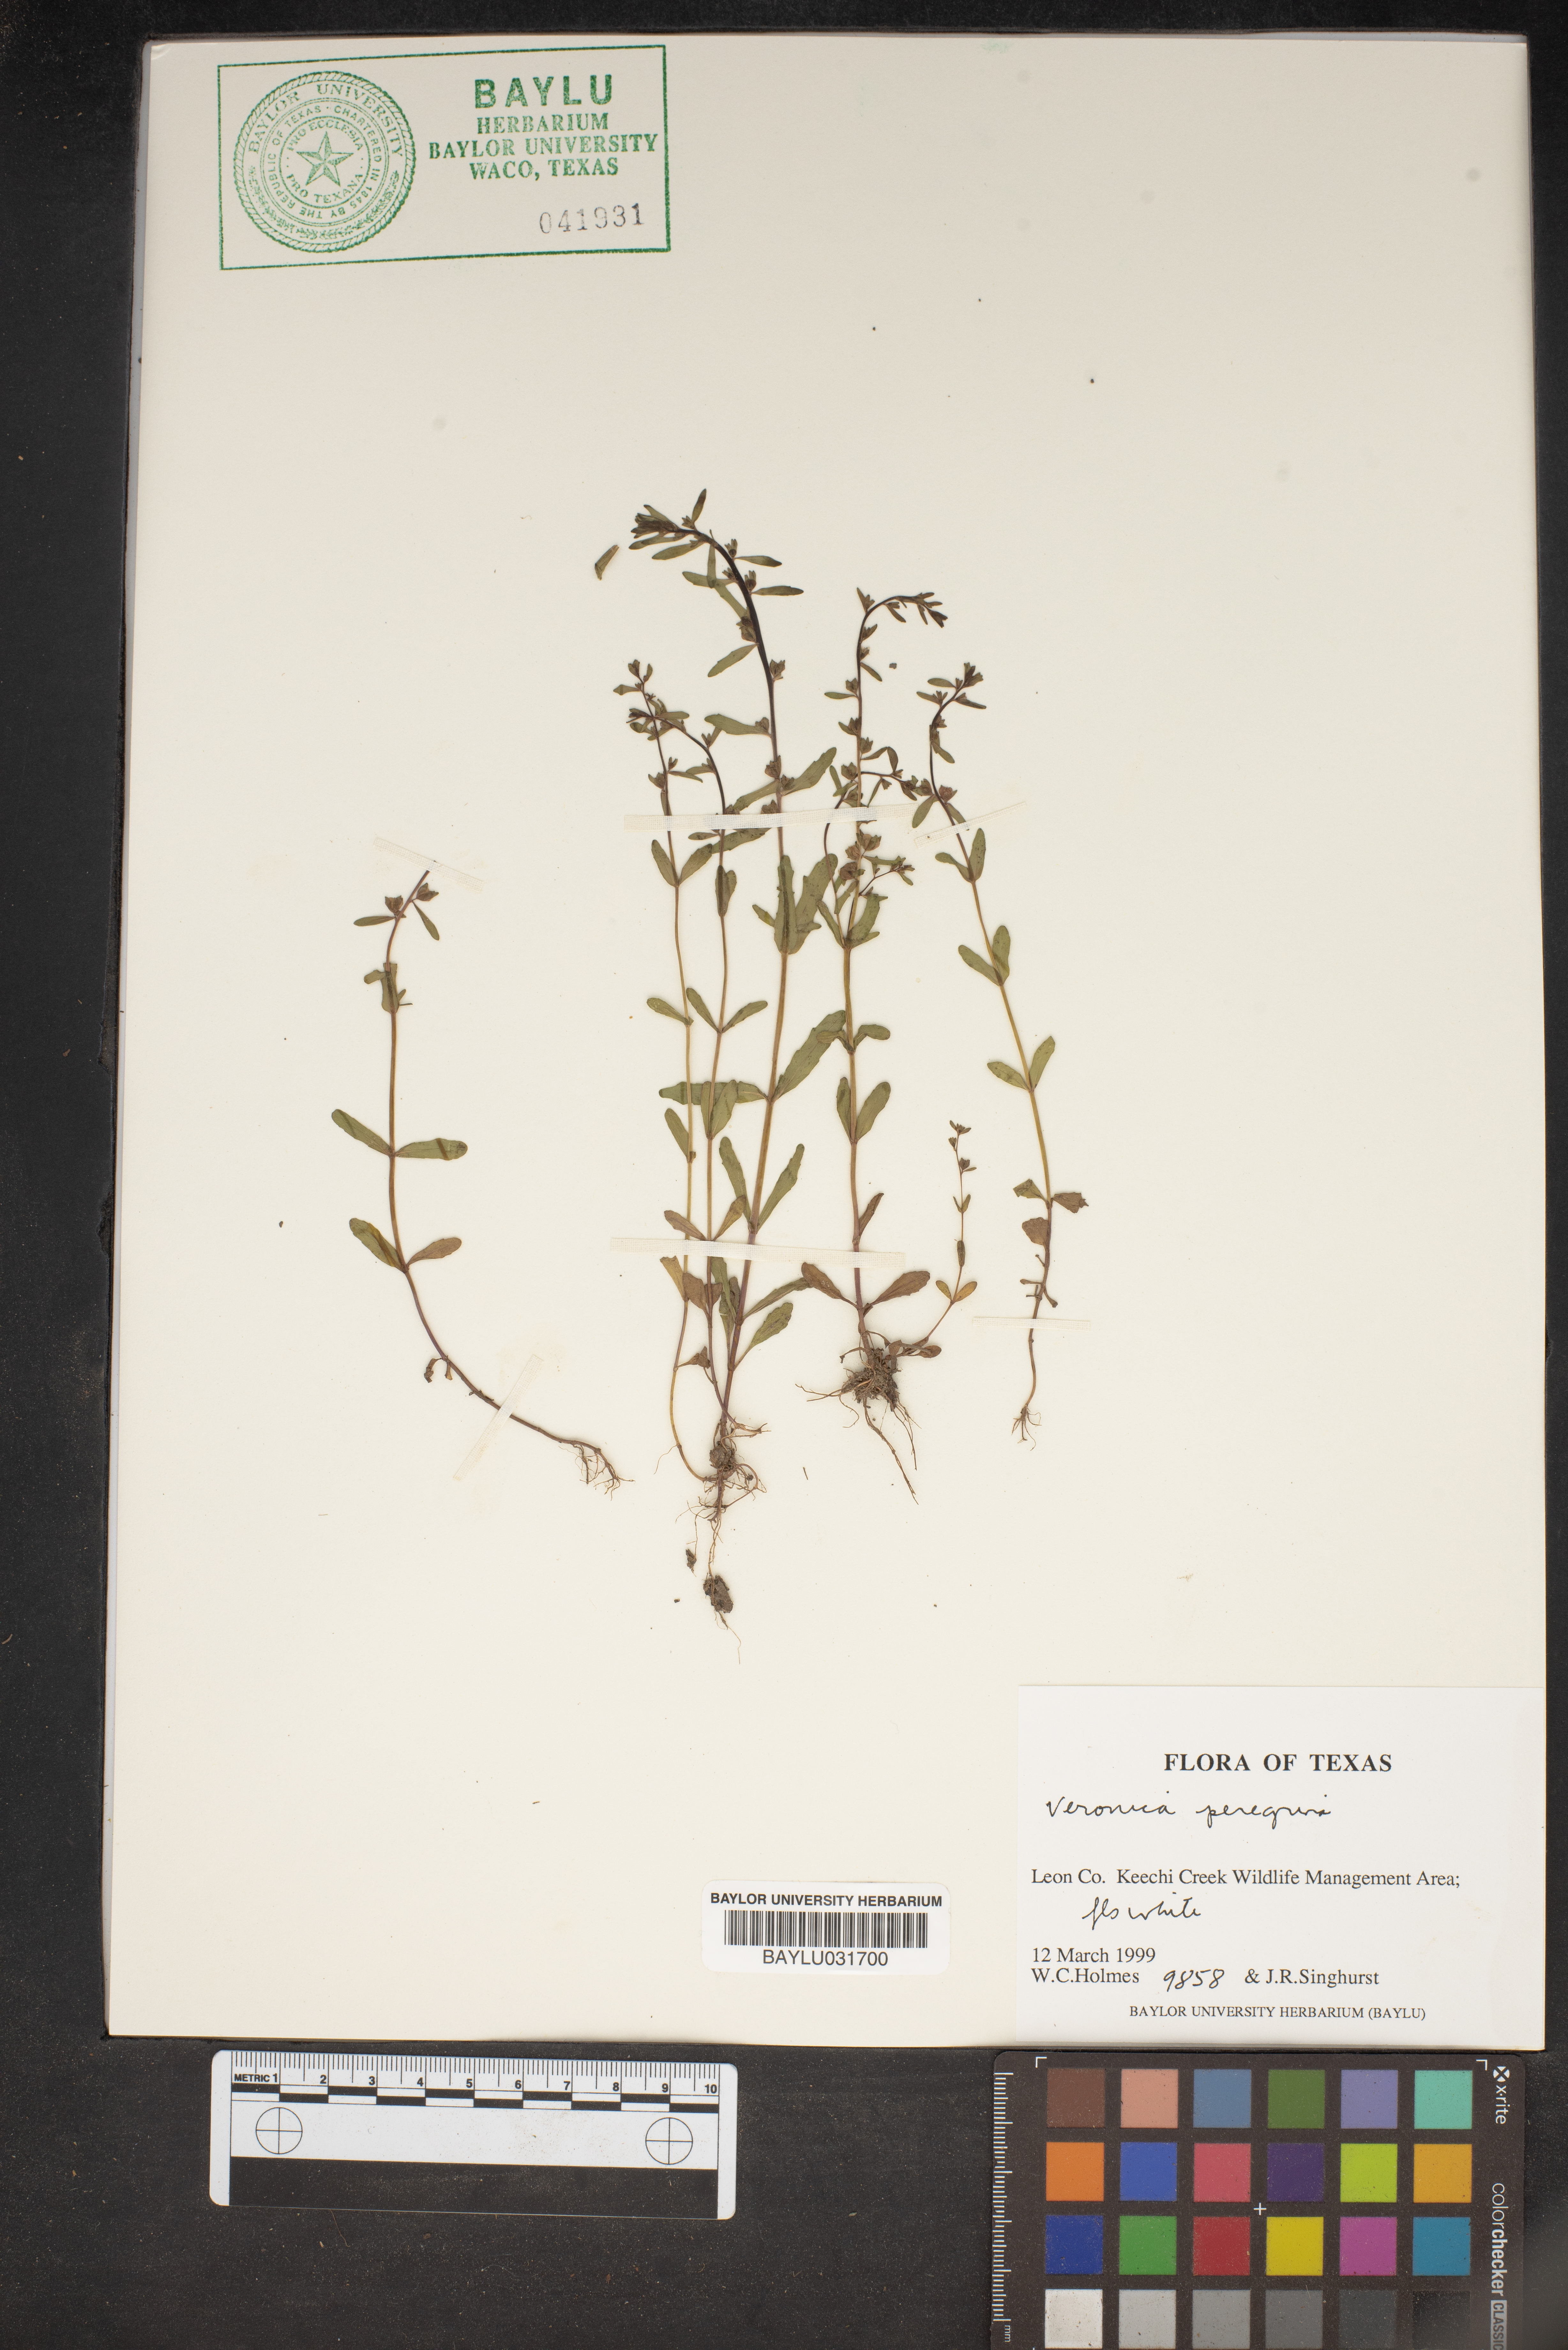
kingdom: Plantae
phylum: Tracheophyta
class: Magnoliopsida
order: Lamiales
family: Plantaginaceae
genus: Veronica
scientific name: Veronica peregrina
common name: Neckweed
